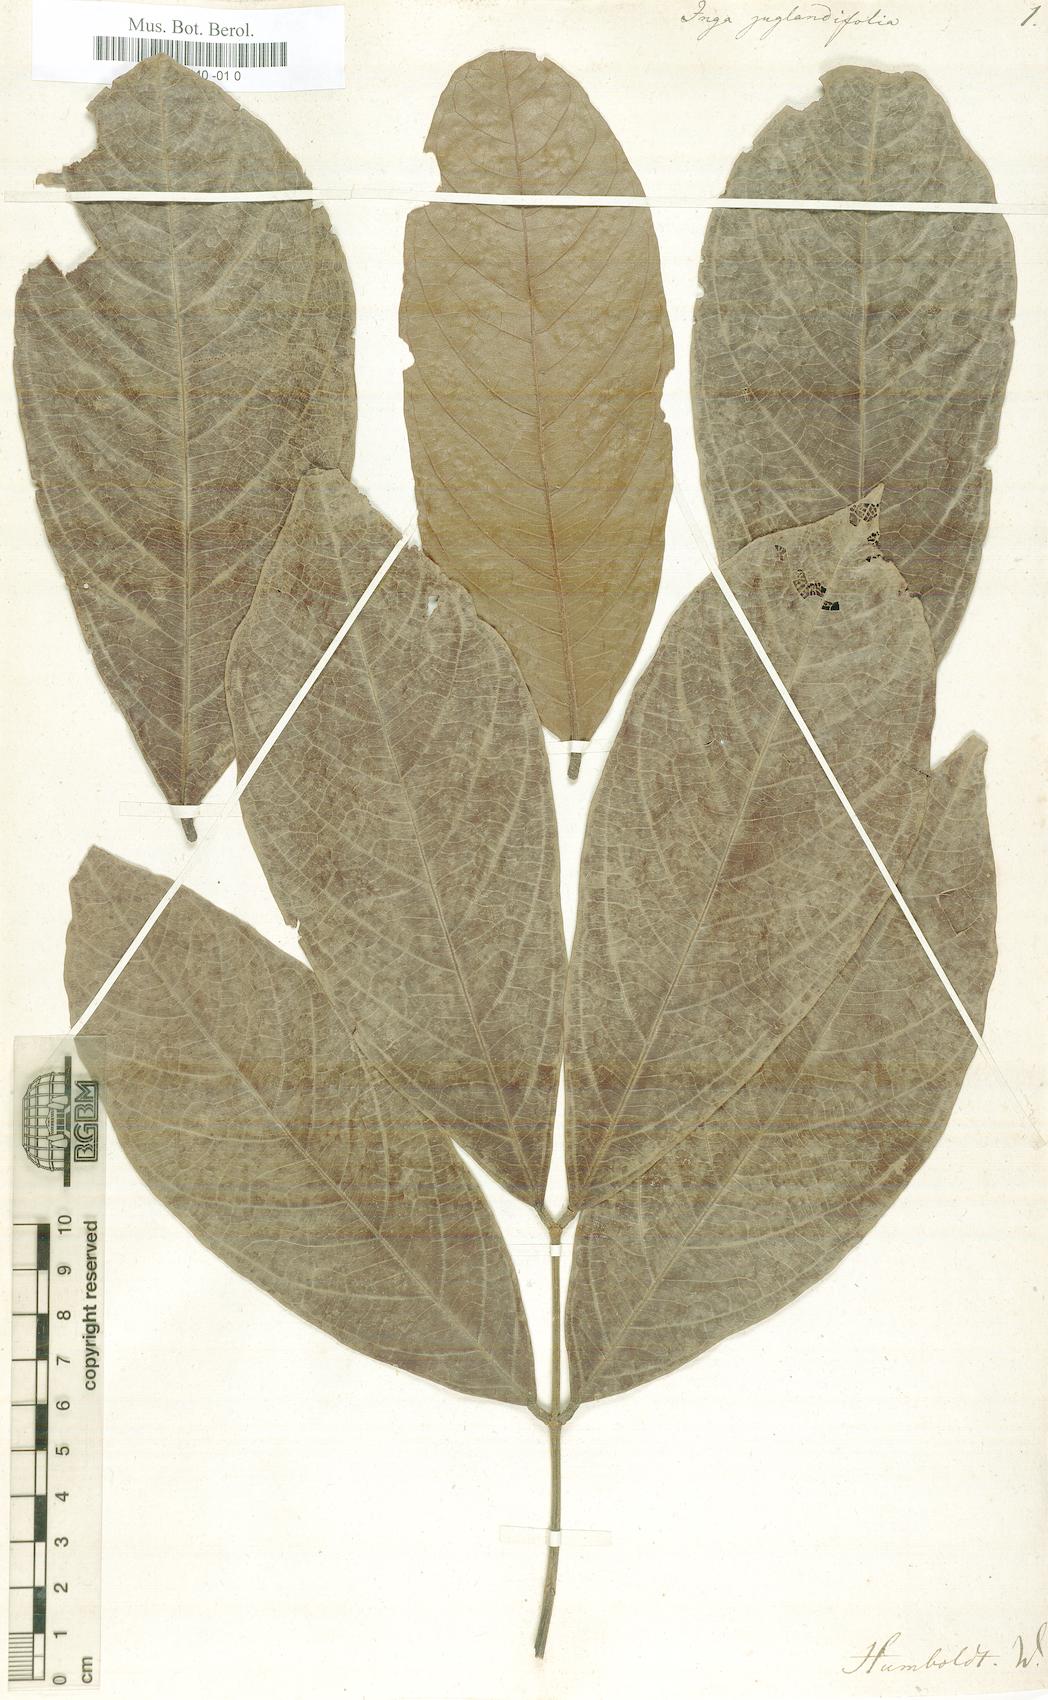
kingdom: Plantae
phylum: Tracheophyta
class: Magnoliopsida
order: Fabales
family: Fabaceae
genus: Inga
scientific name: Inga
